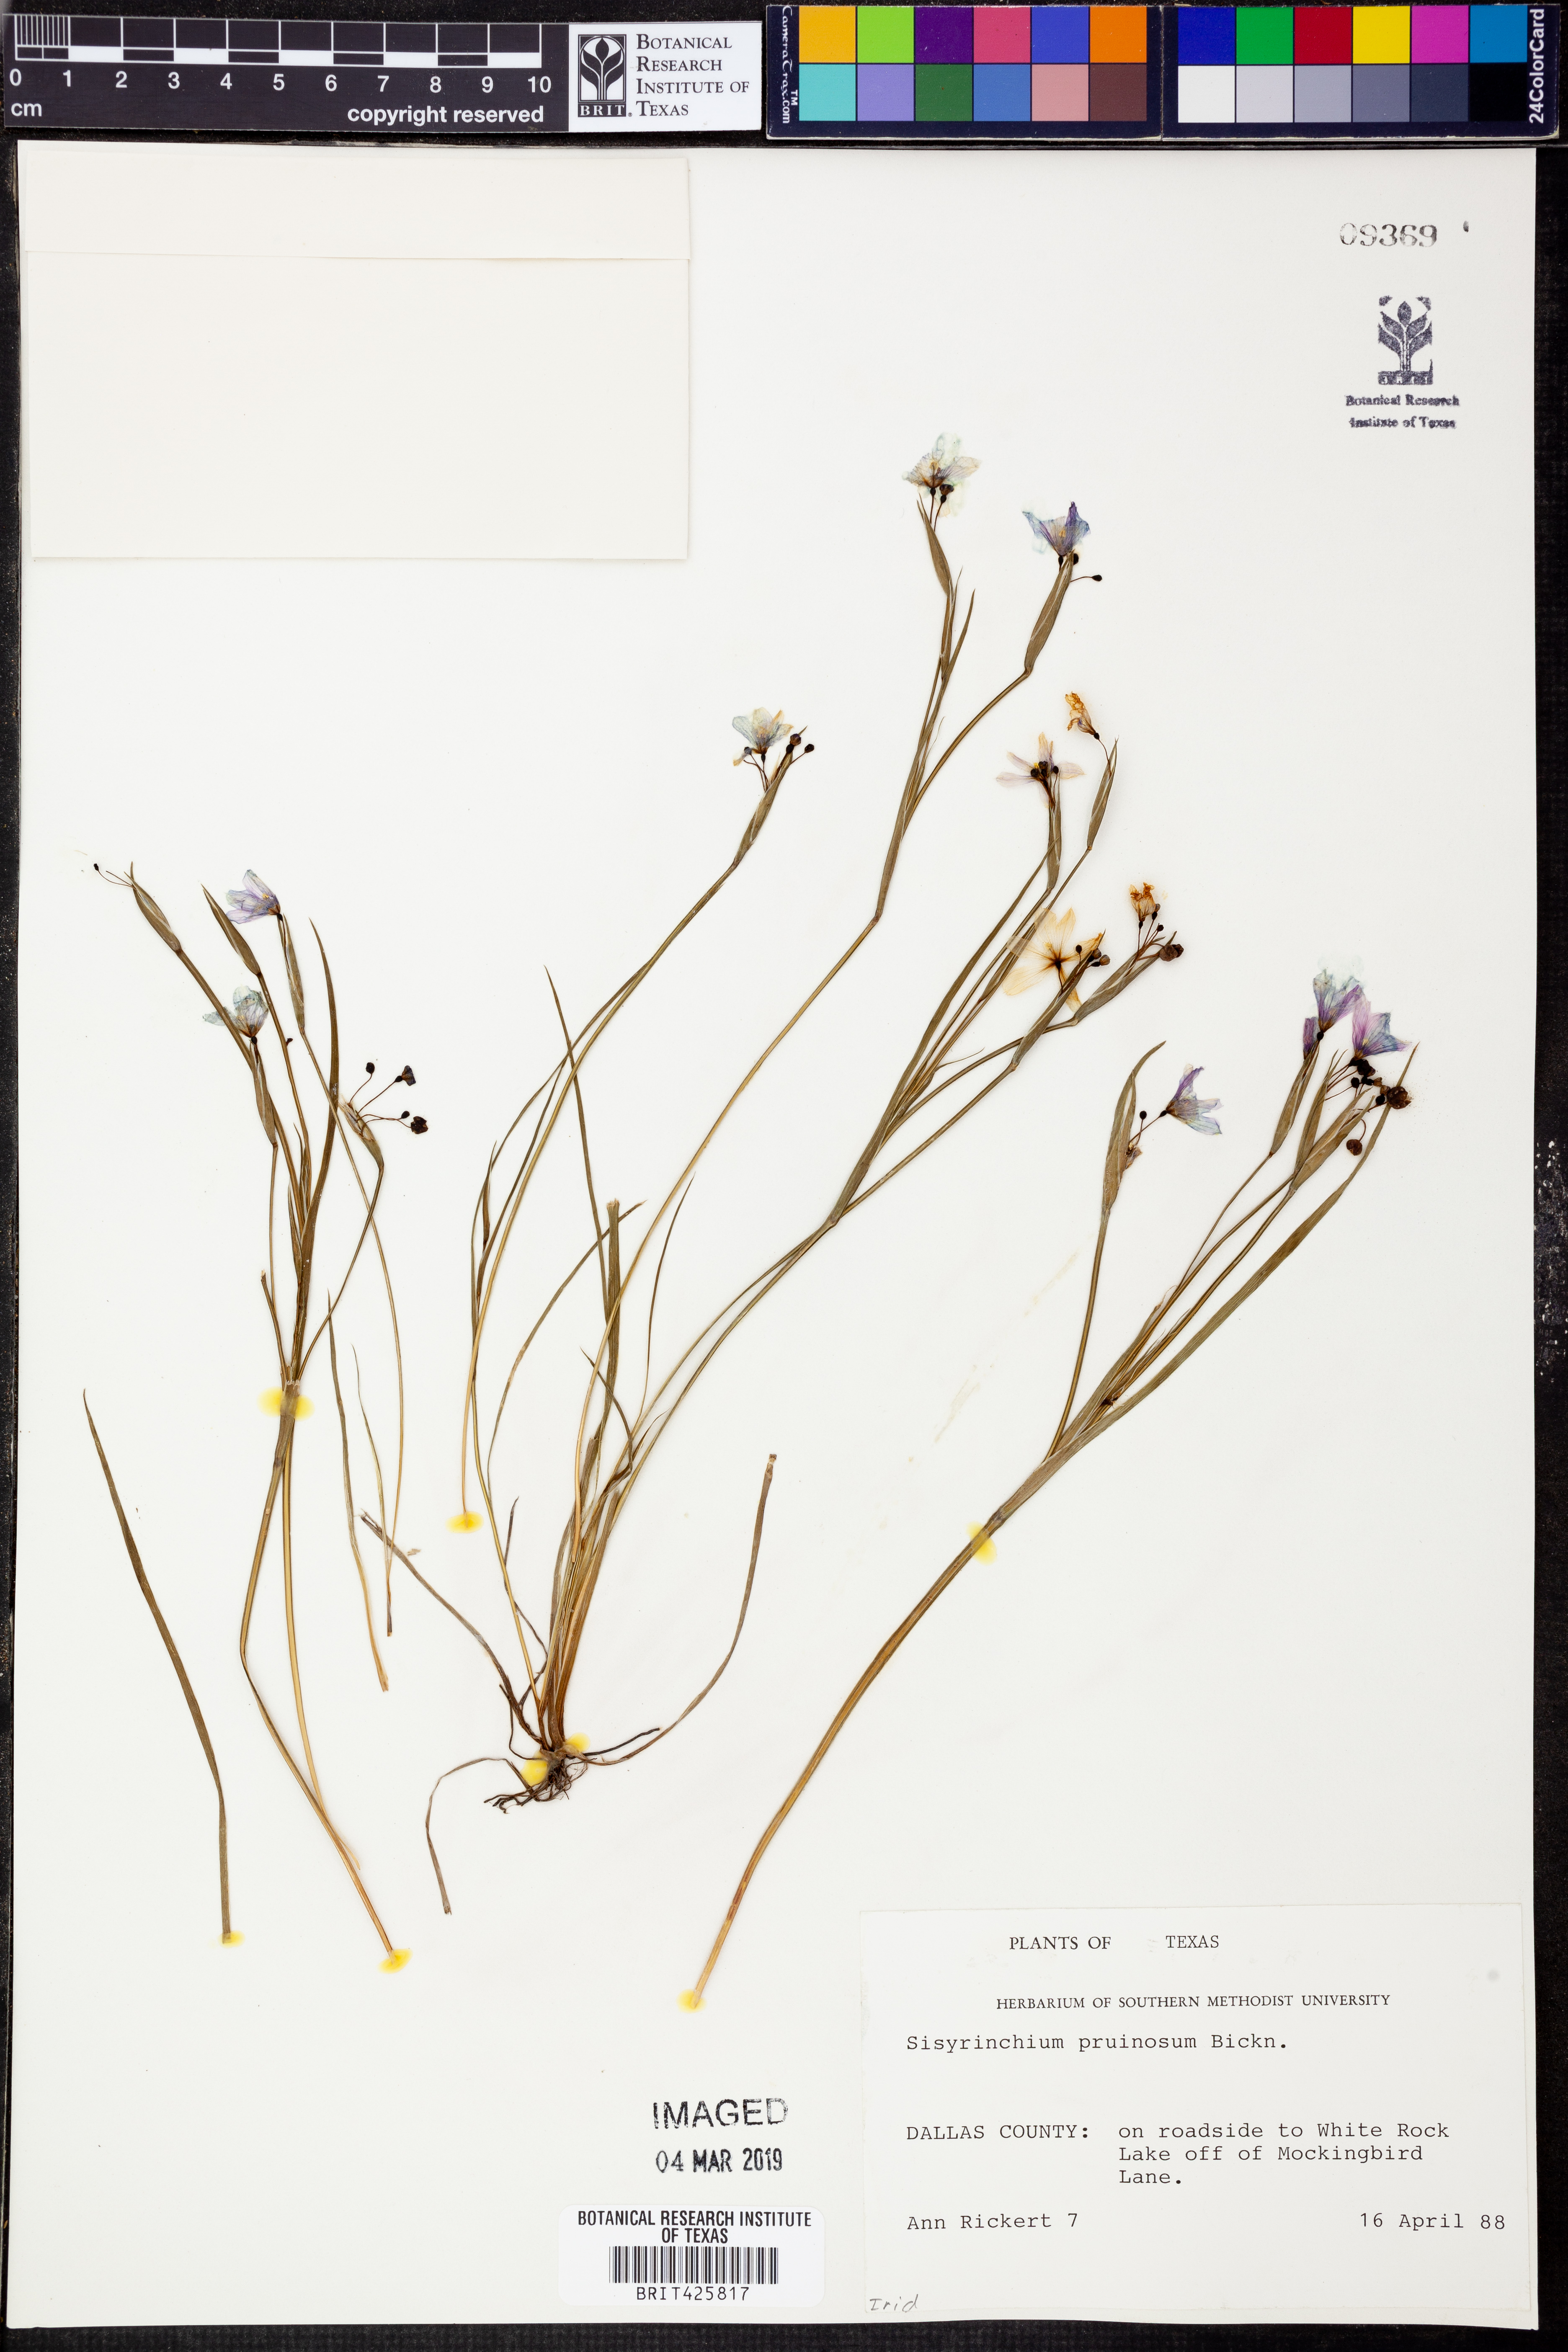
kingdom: Plantae
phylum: Tracheophyta
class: Liliopsida
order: Asparagales
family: Iridaceae
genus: Sisyrinchium
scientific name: Sisyrinchium pruinosum
